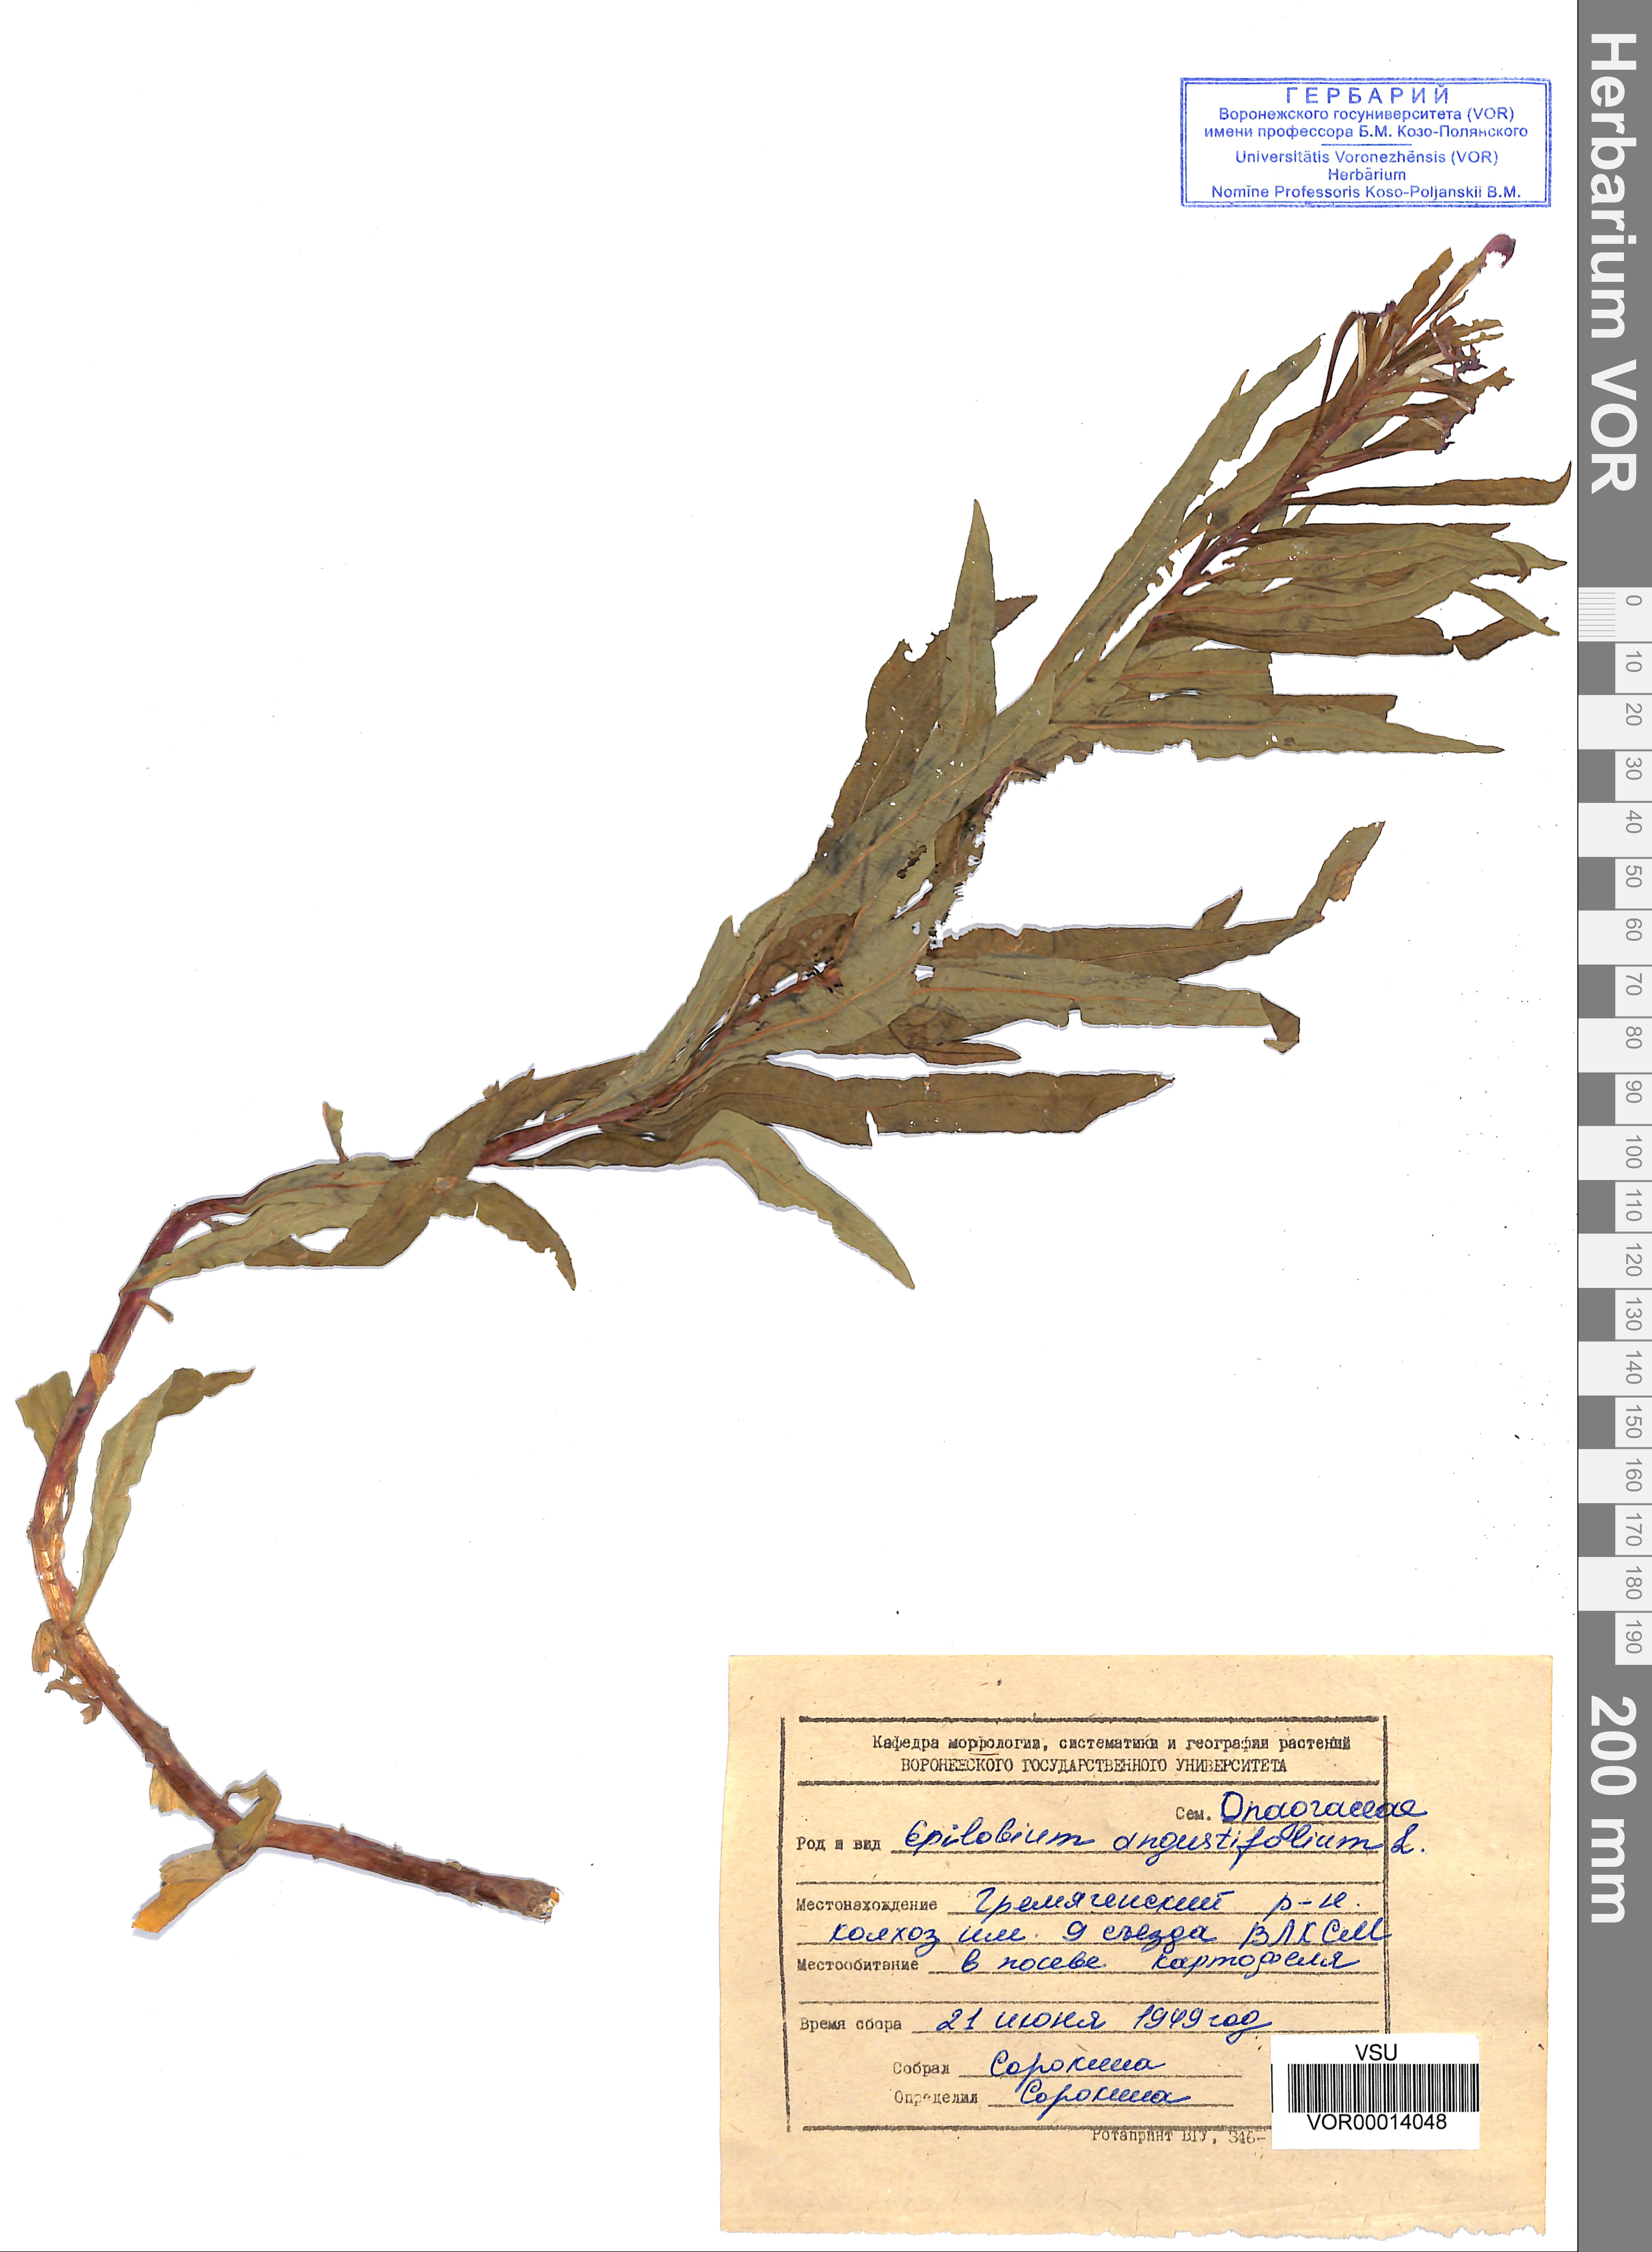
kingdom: Plantae
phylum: Tracheophyta
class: Magnoliopsida
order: Myrtales
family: Onagraceae
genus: Chamaenerion
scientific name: Chamaenerion angustifolium
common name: Fireweed
